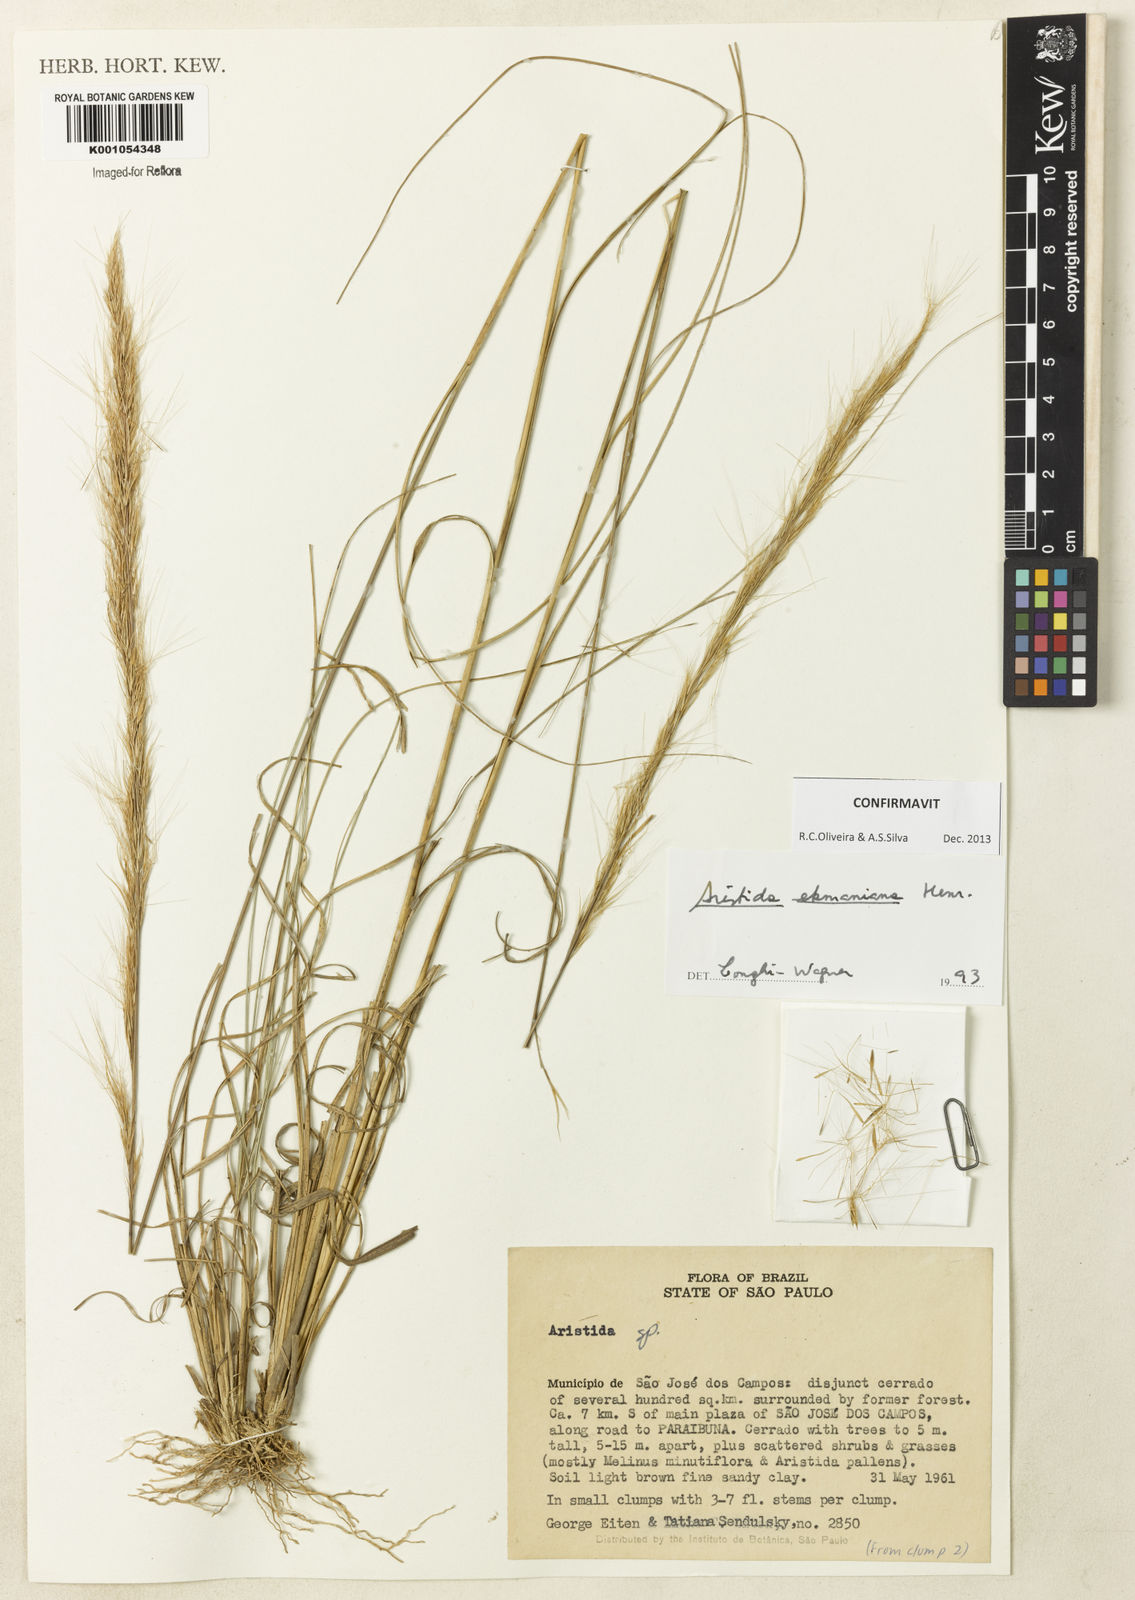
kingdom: Plantae
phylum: Tracheophyta
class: Liliopsida
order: Poales
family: Poaceae
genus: Aristida
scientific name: Aristida ekmaniana
